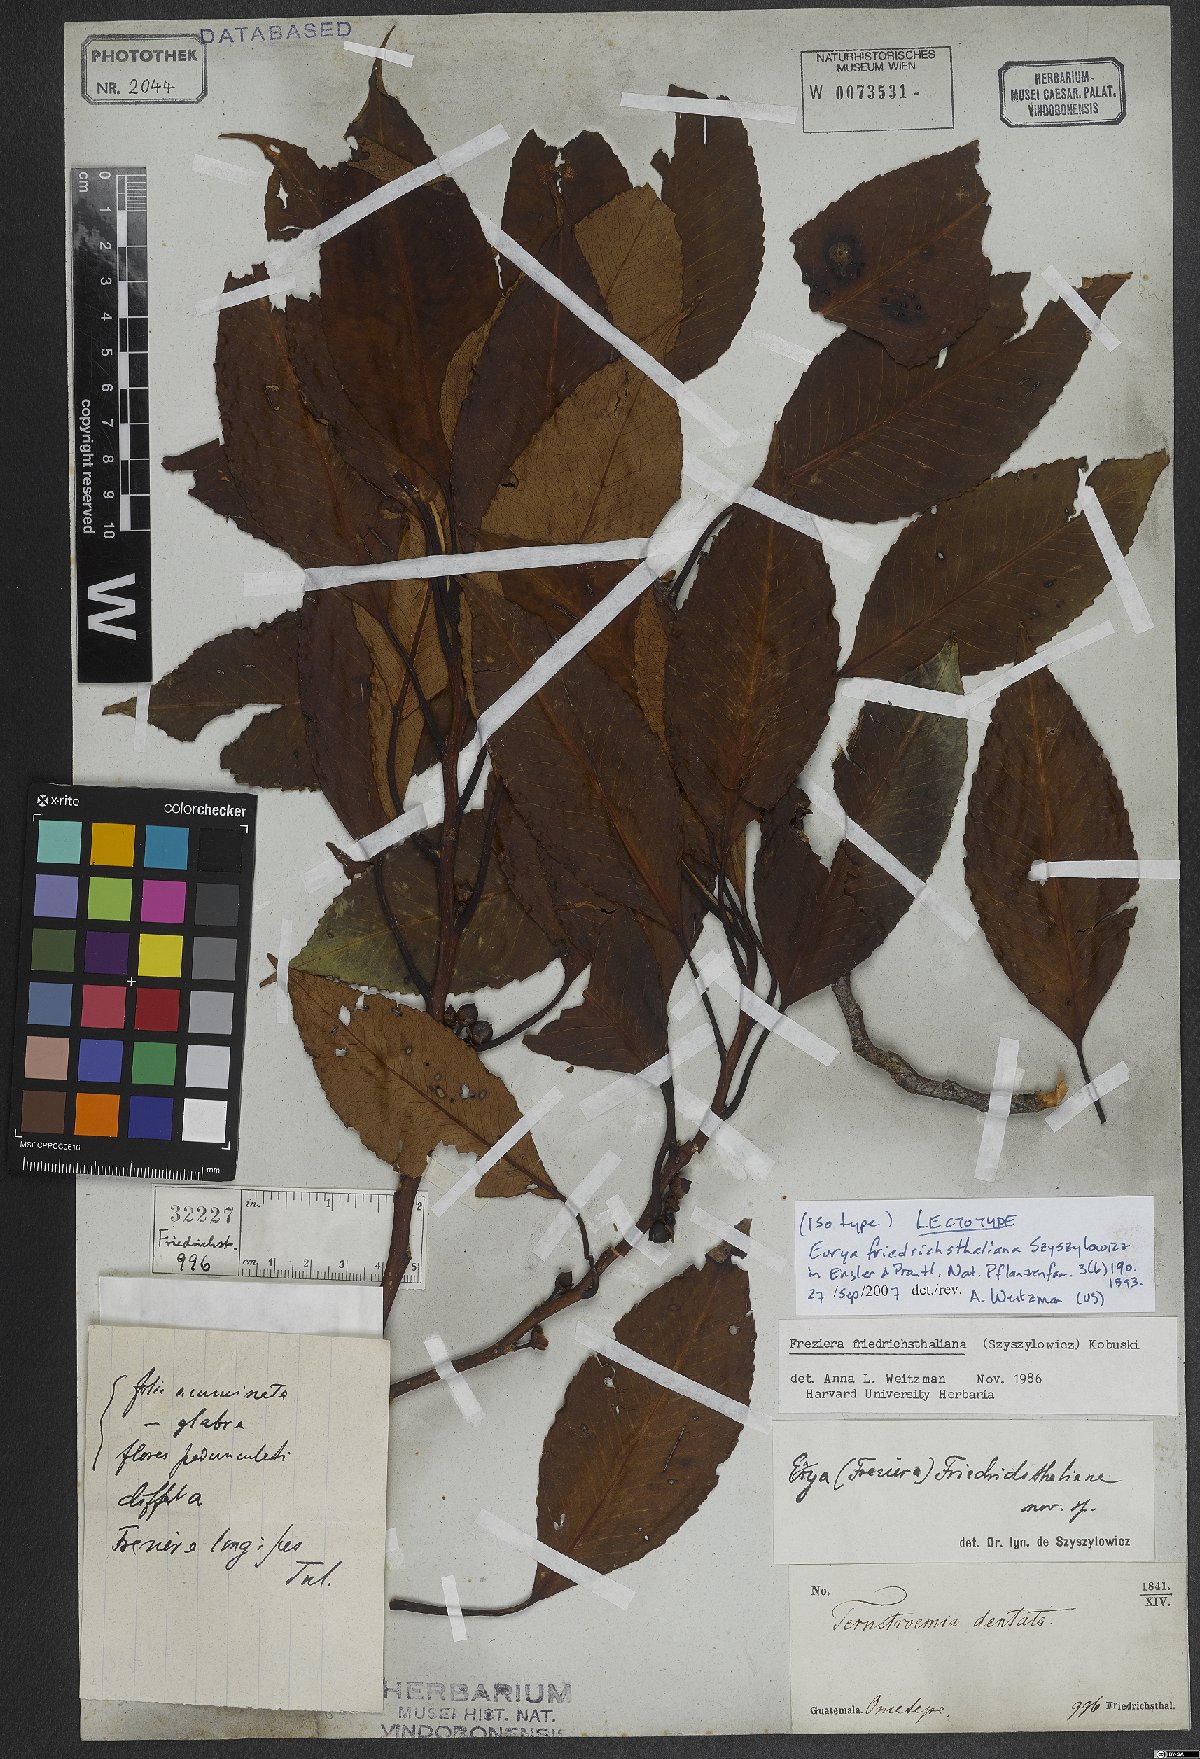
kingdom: Plantae
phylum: Tracheophyta
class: Magnoliopsida
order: Ericales
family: Pentaphylacaceae
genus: Freziera
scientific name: Freziera friedrichsthaliana
